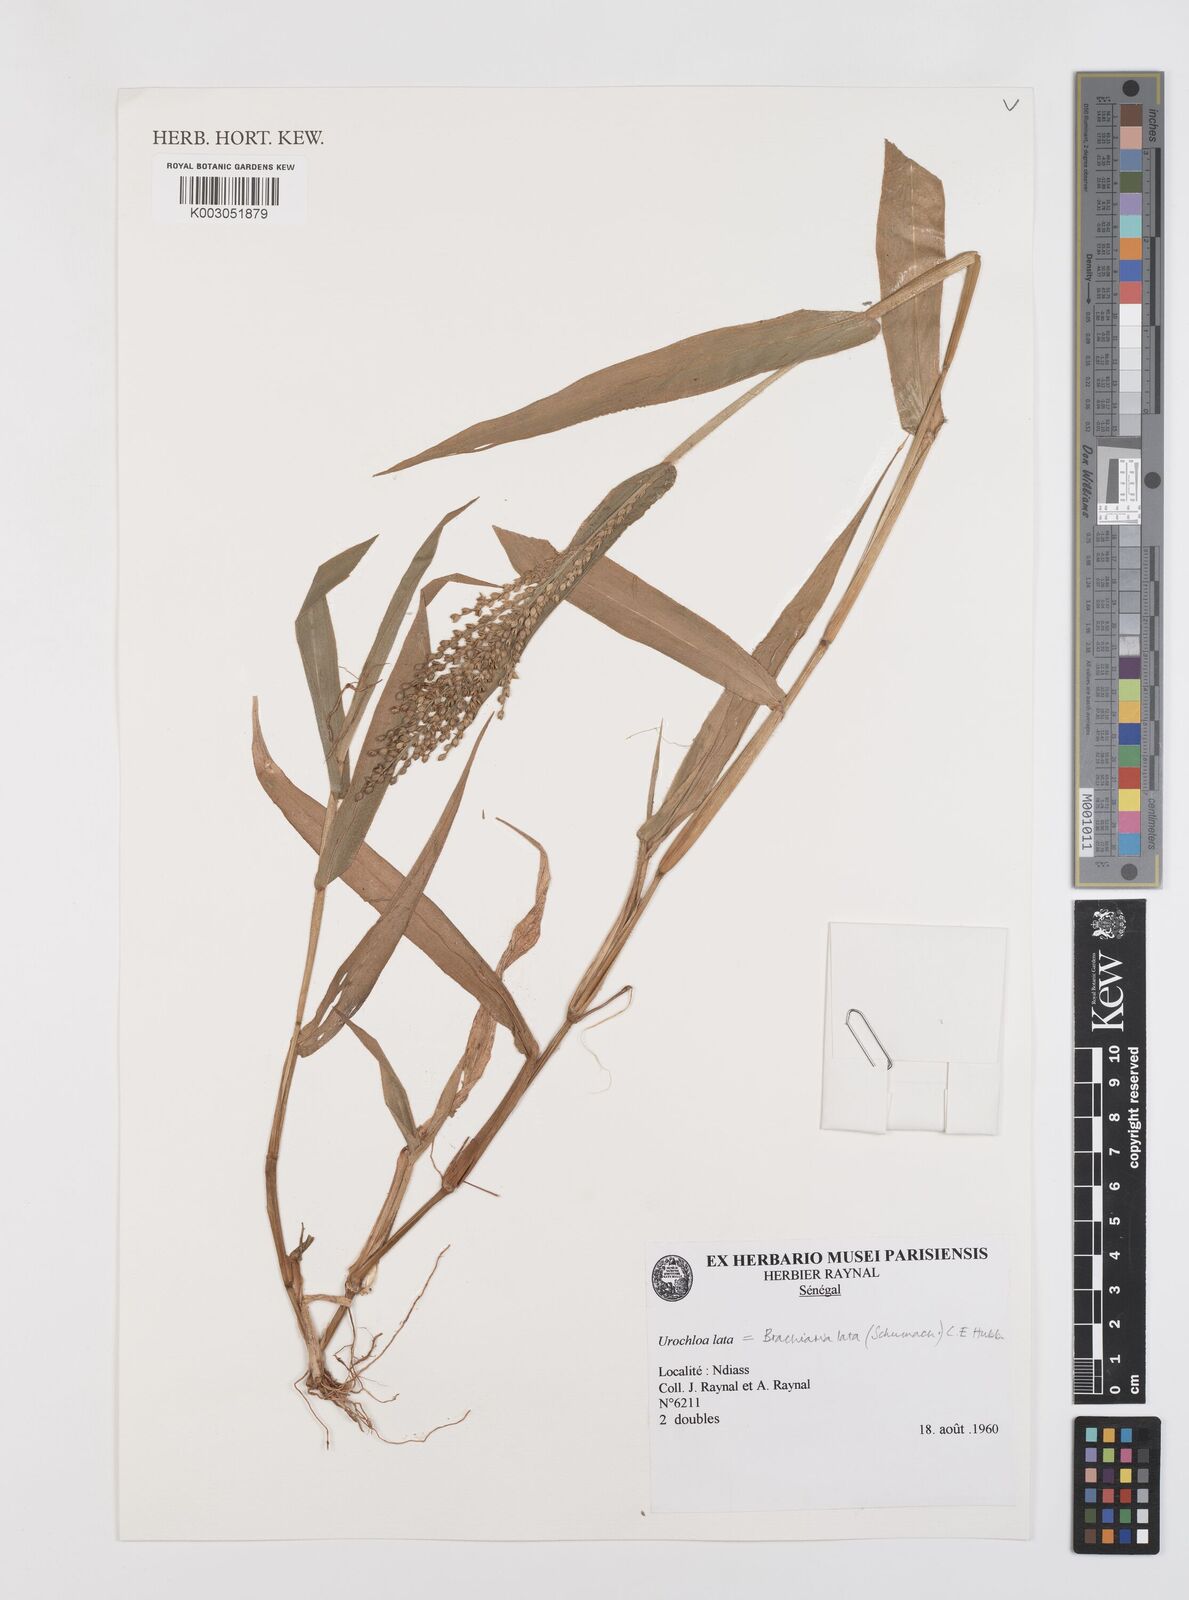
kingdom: Plantae
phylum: Tracheophyta
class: Liliopsida
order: Poales
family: Poaceae
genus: Urochloa
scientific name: Urochloa lata
